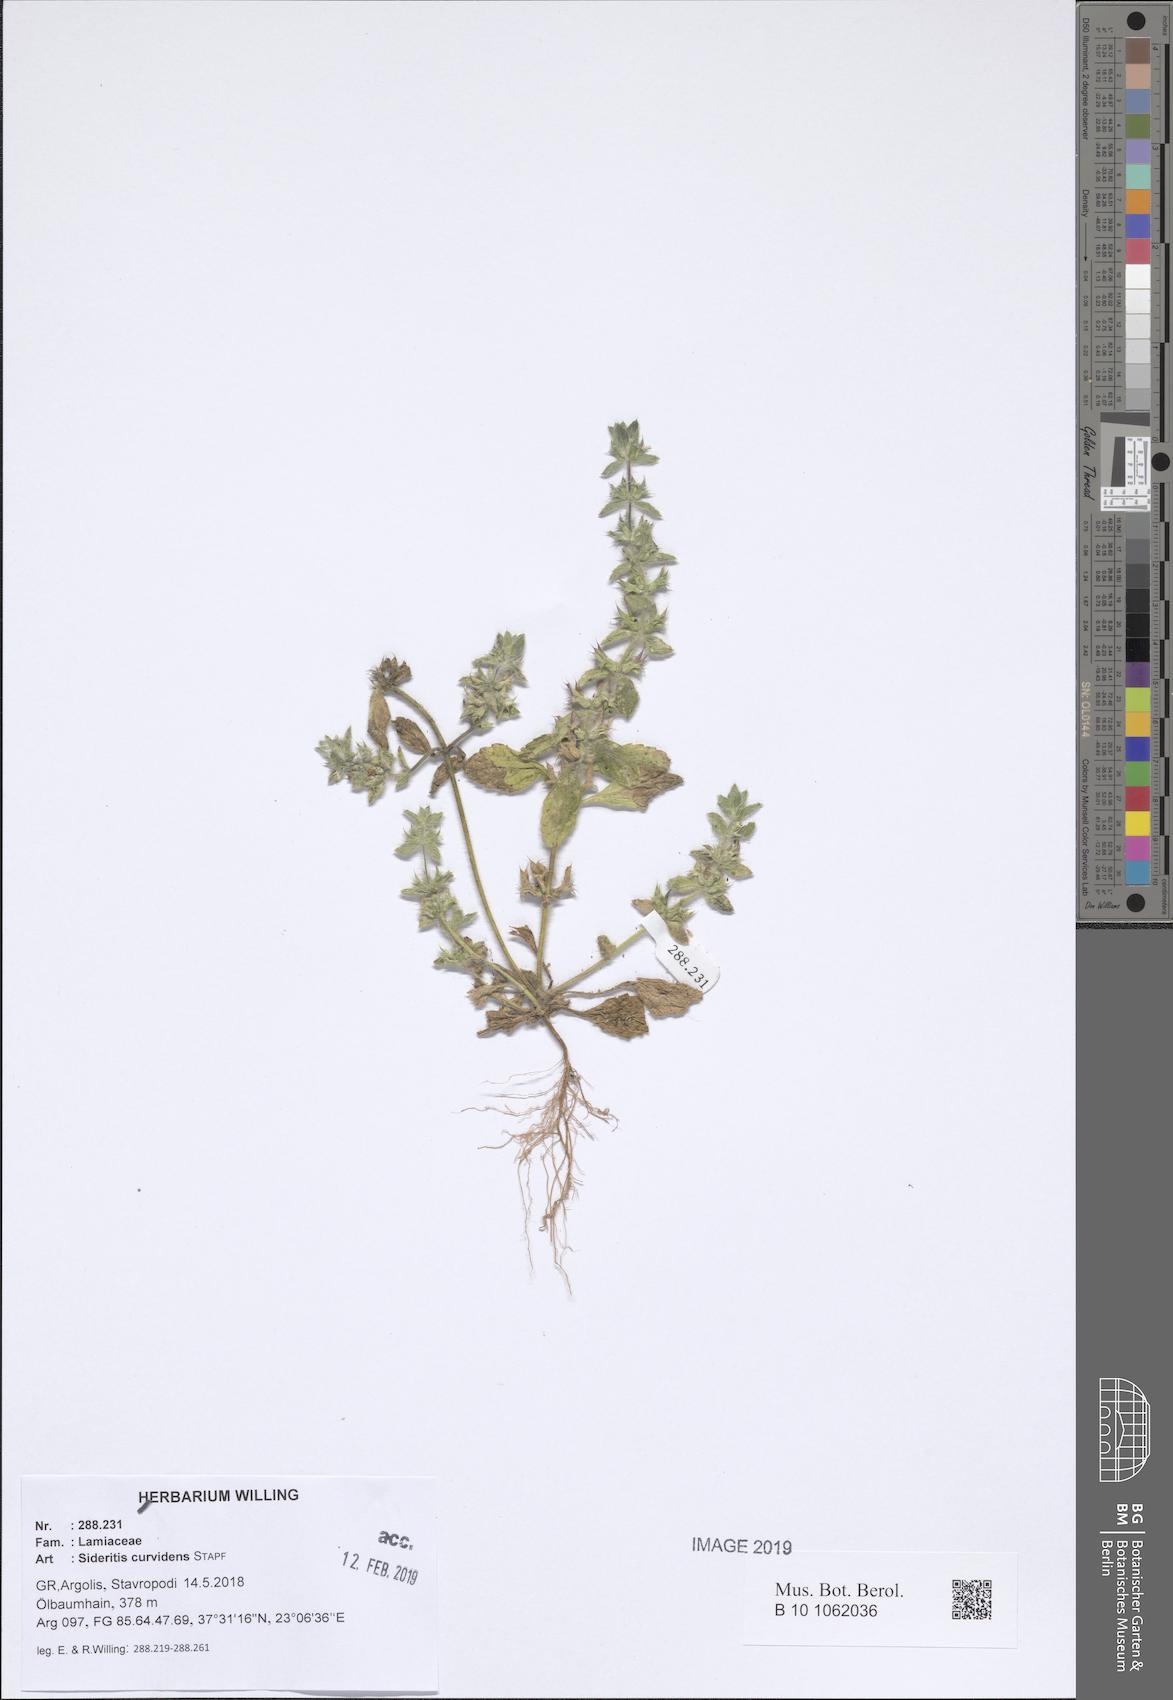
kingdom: Plantae
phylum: Tracheophyta
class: Magnoliopsida
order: Lamiales
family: Lamiaceae
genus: Sideritis
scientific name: Sideritis romana
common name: Simplebeak ironwort
